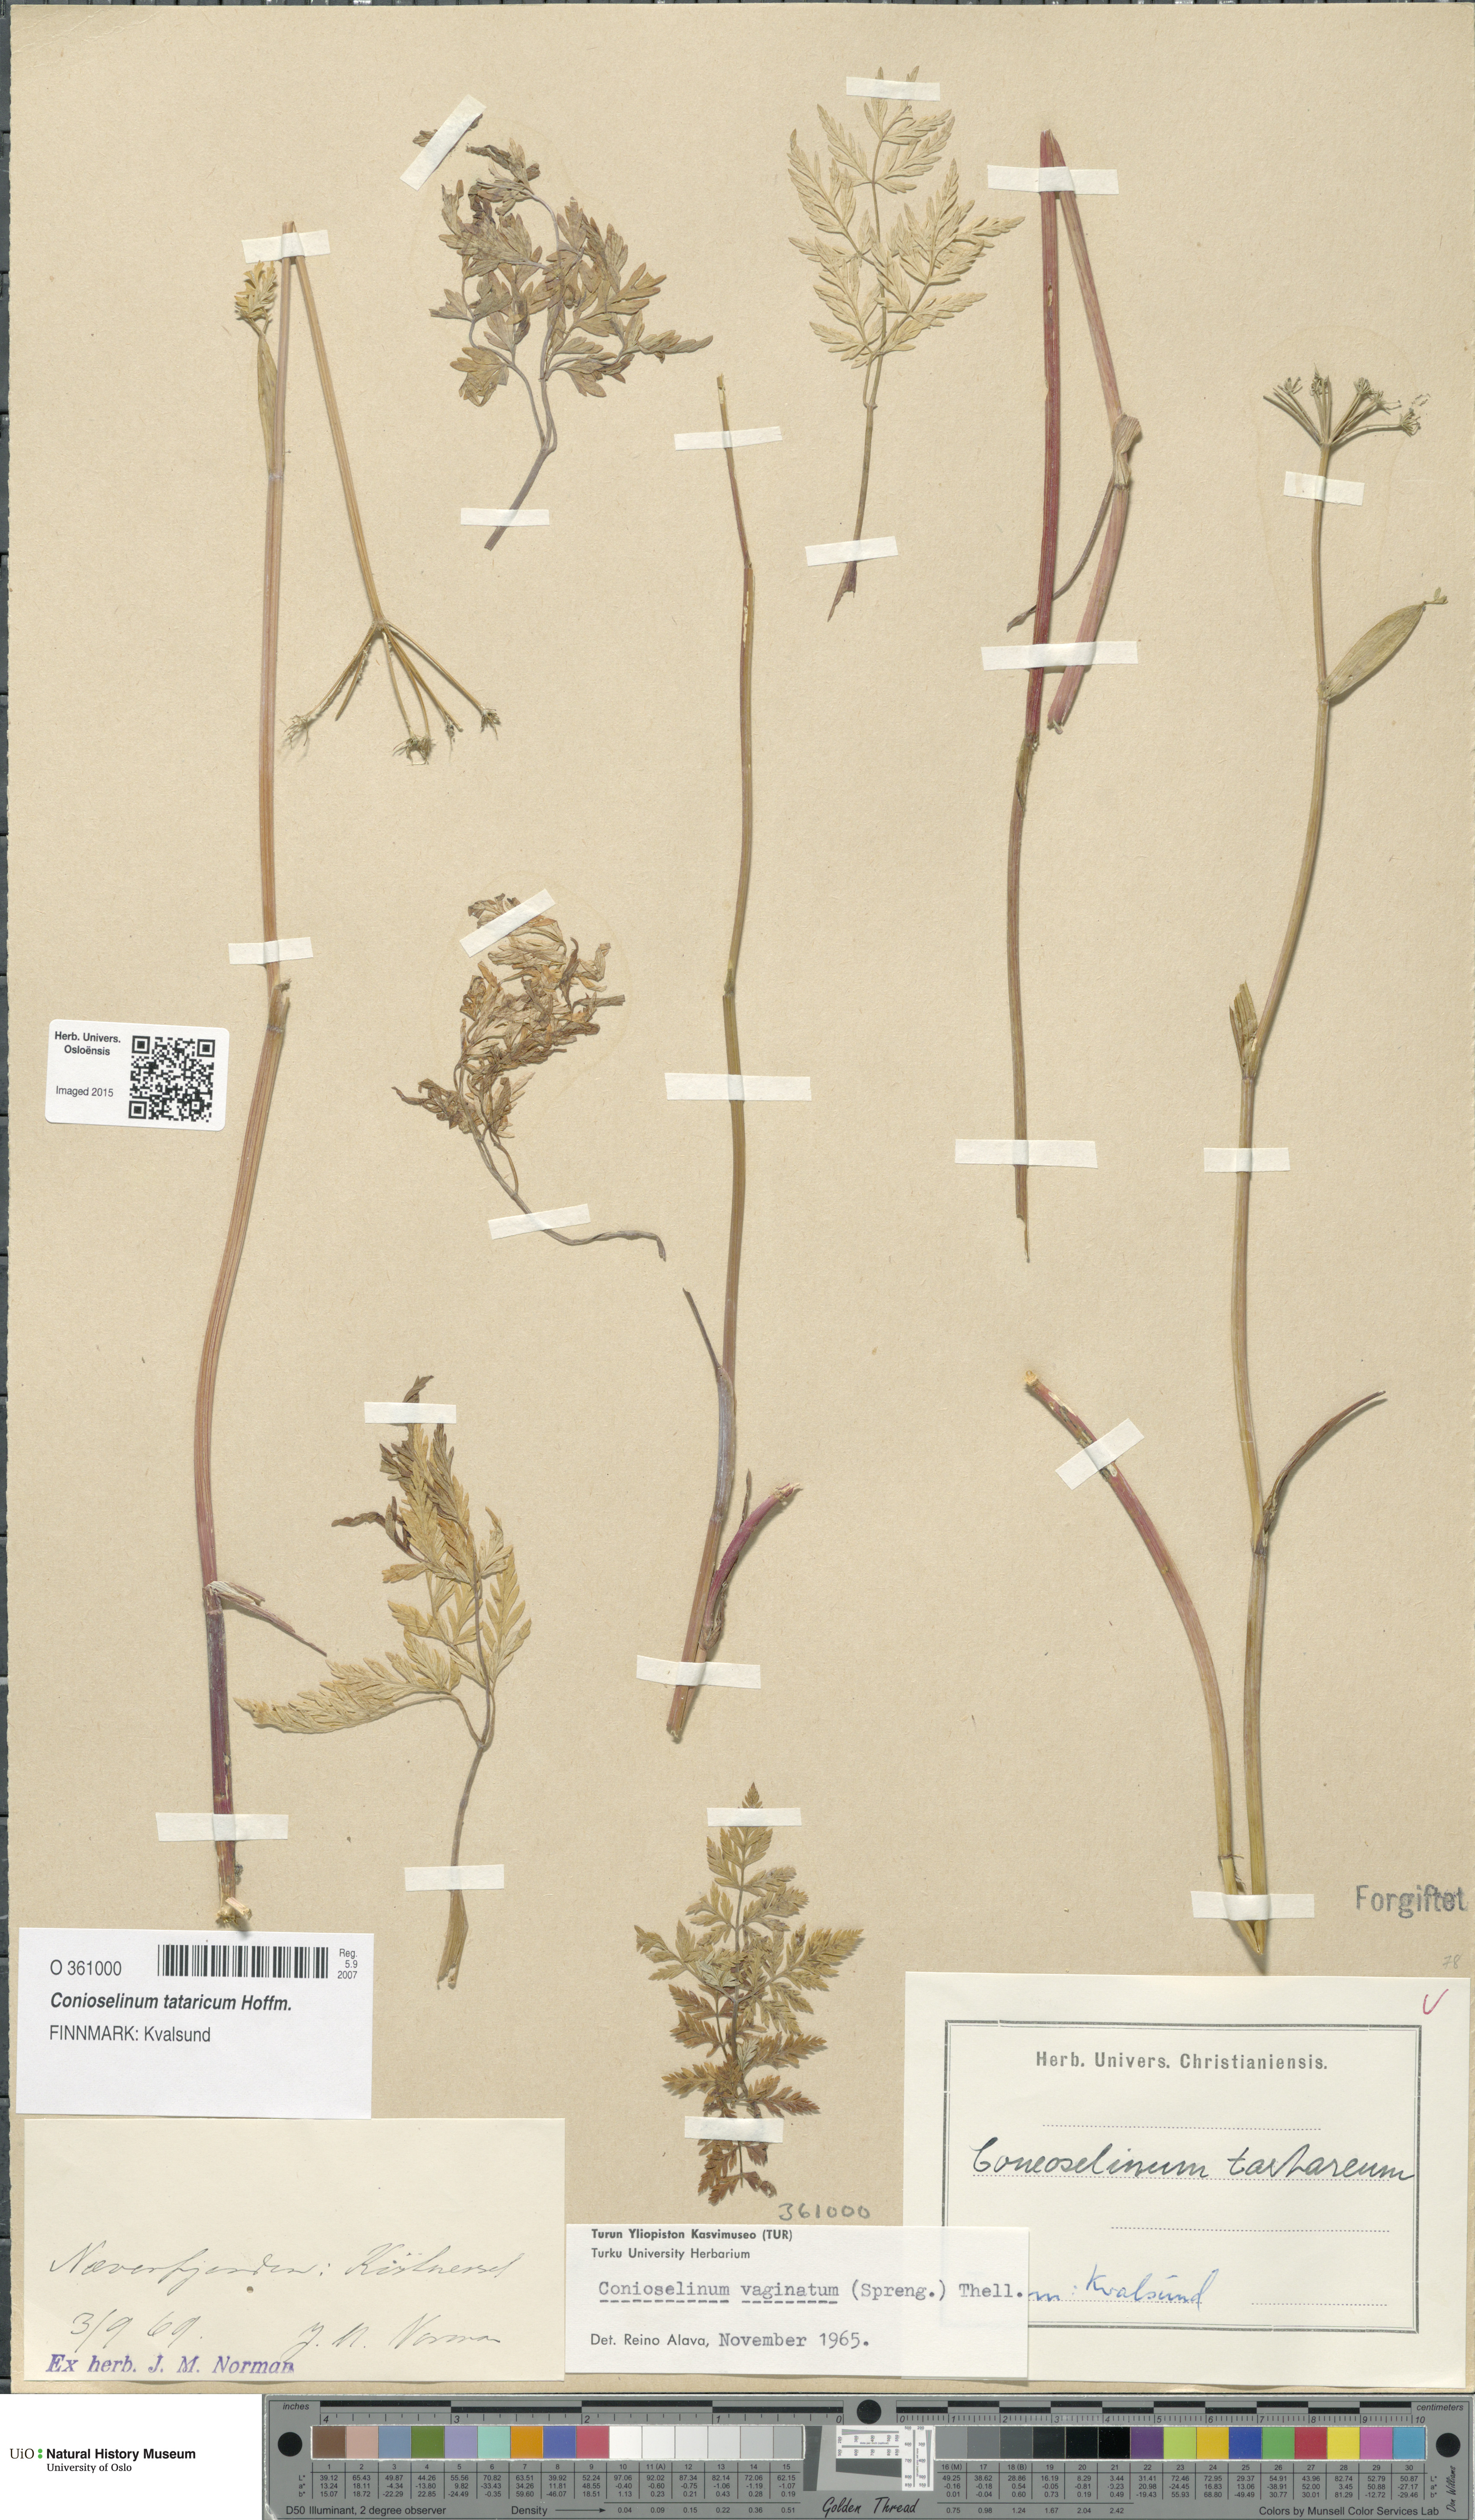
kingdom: Plantae
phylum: Tracheophyta
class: Magnoliopsida
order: Apiales
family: Apiaceae
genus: Seseli
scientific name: Seseli condensatum
